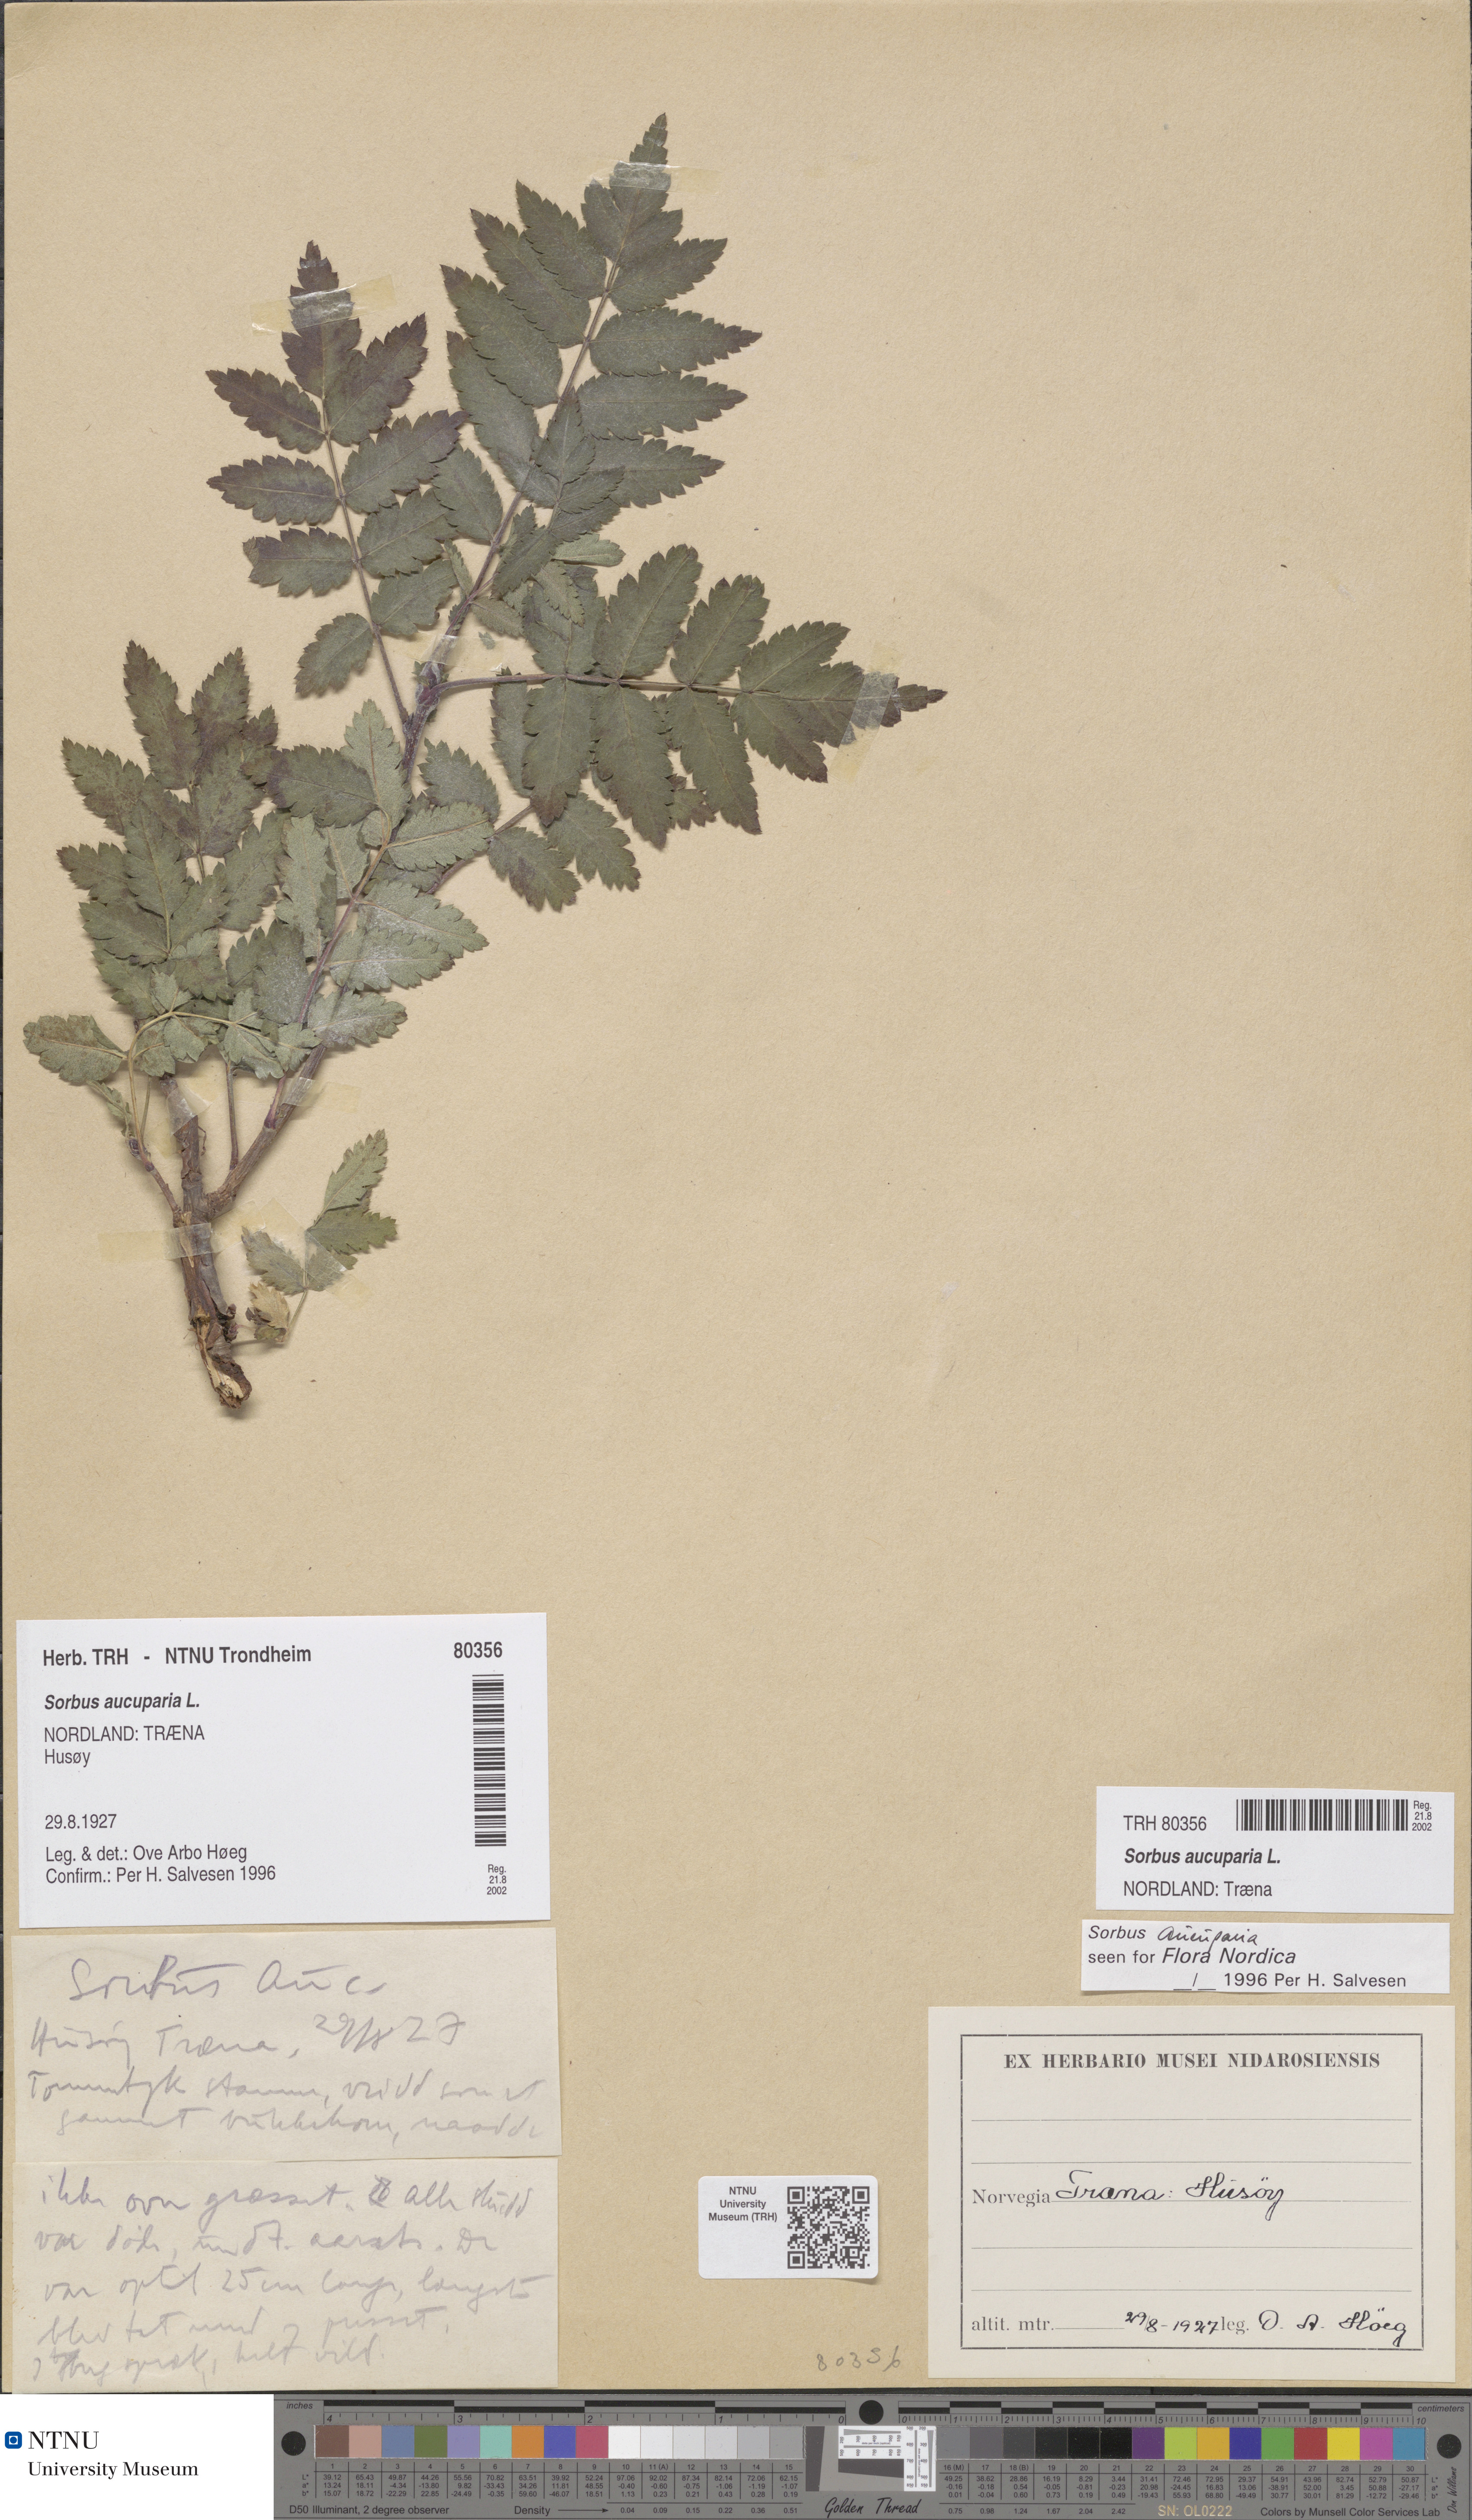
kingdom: Plantae
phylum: Tracheophyta
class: Magnoliopsida
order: Rosales
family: Rosaceae
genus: Sorbus
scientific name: Sorbus aucuparia
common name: Rowan
